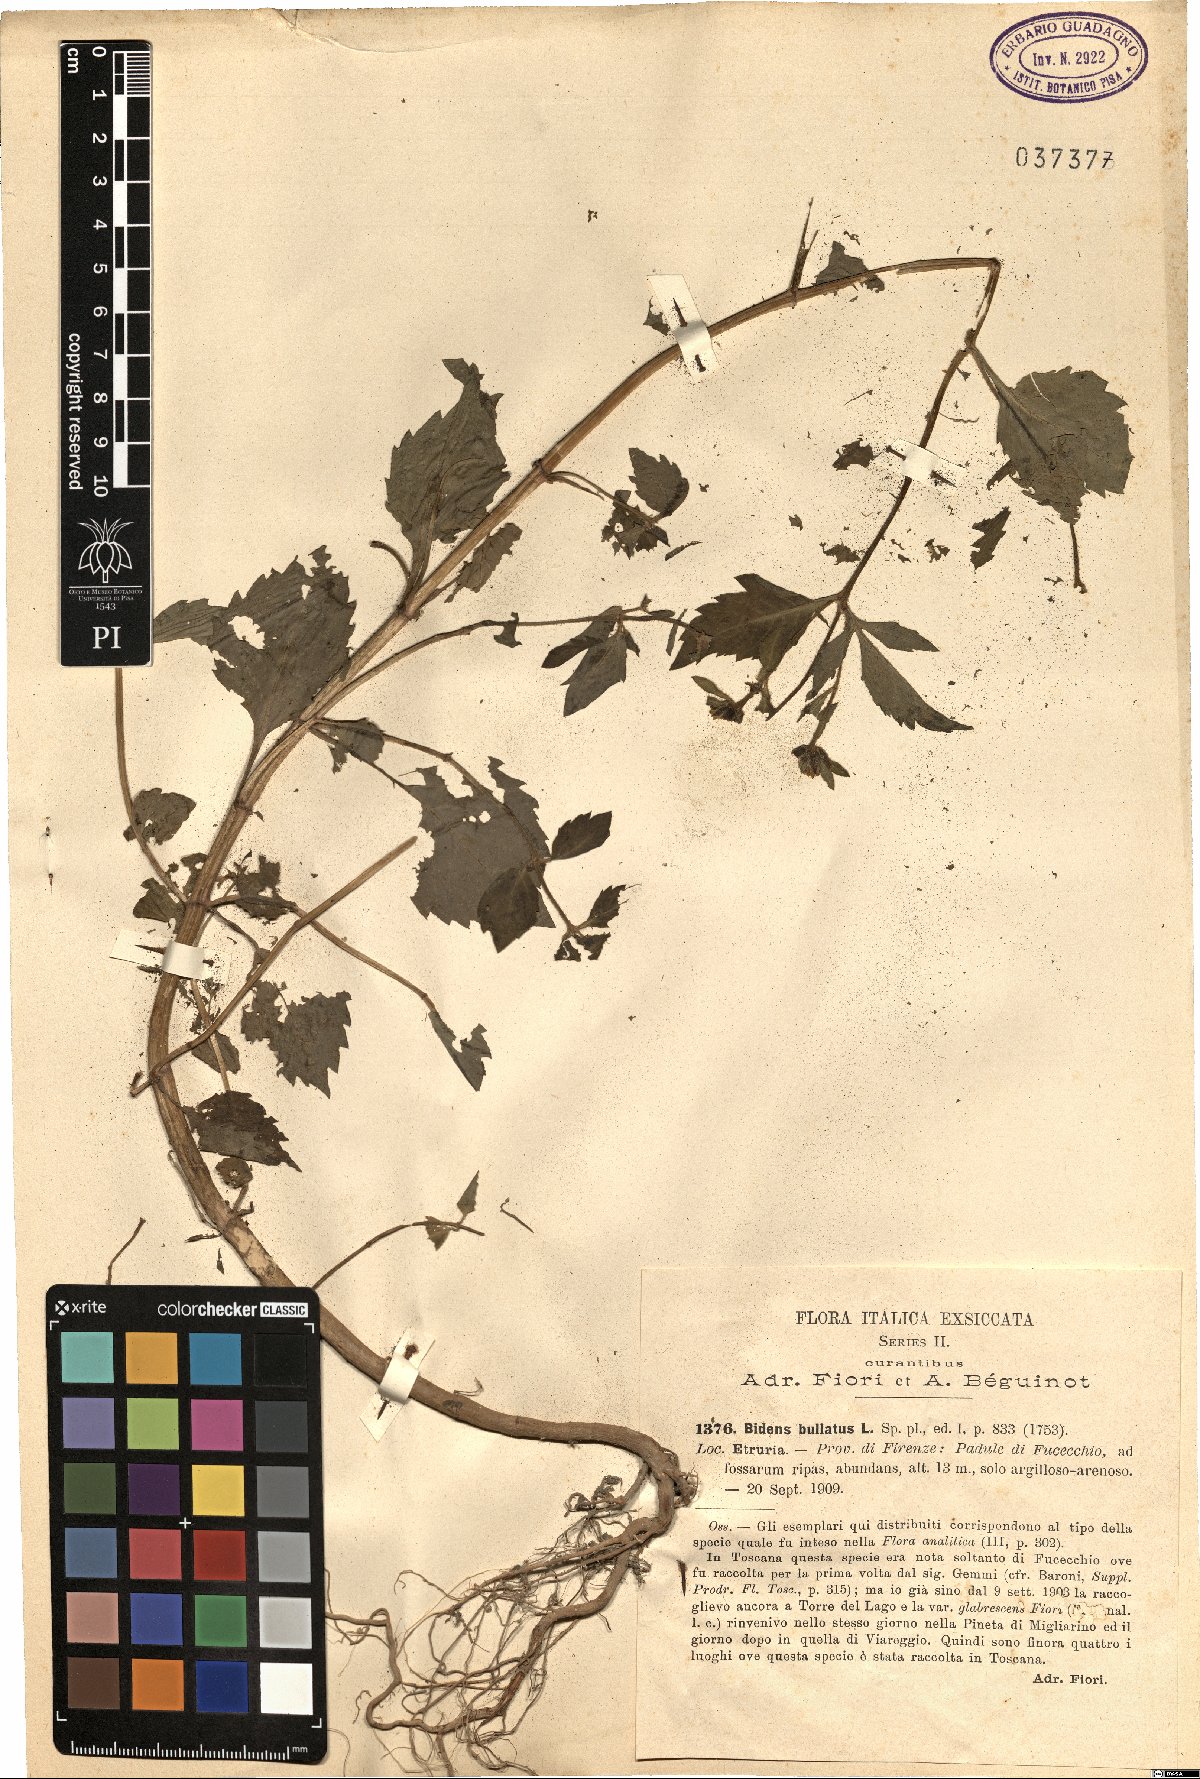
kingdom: Plantae
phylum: Tracheophyta
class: Magnoliopsida
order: Asterales
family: Asteraceae
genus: Bidens
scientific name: Bidens tripartita
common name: Trifid bur-marigold
